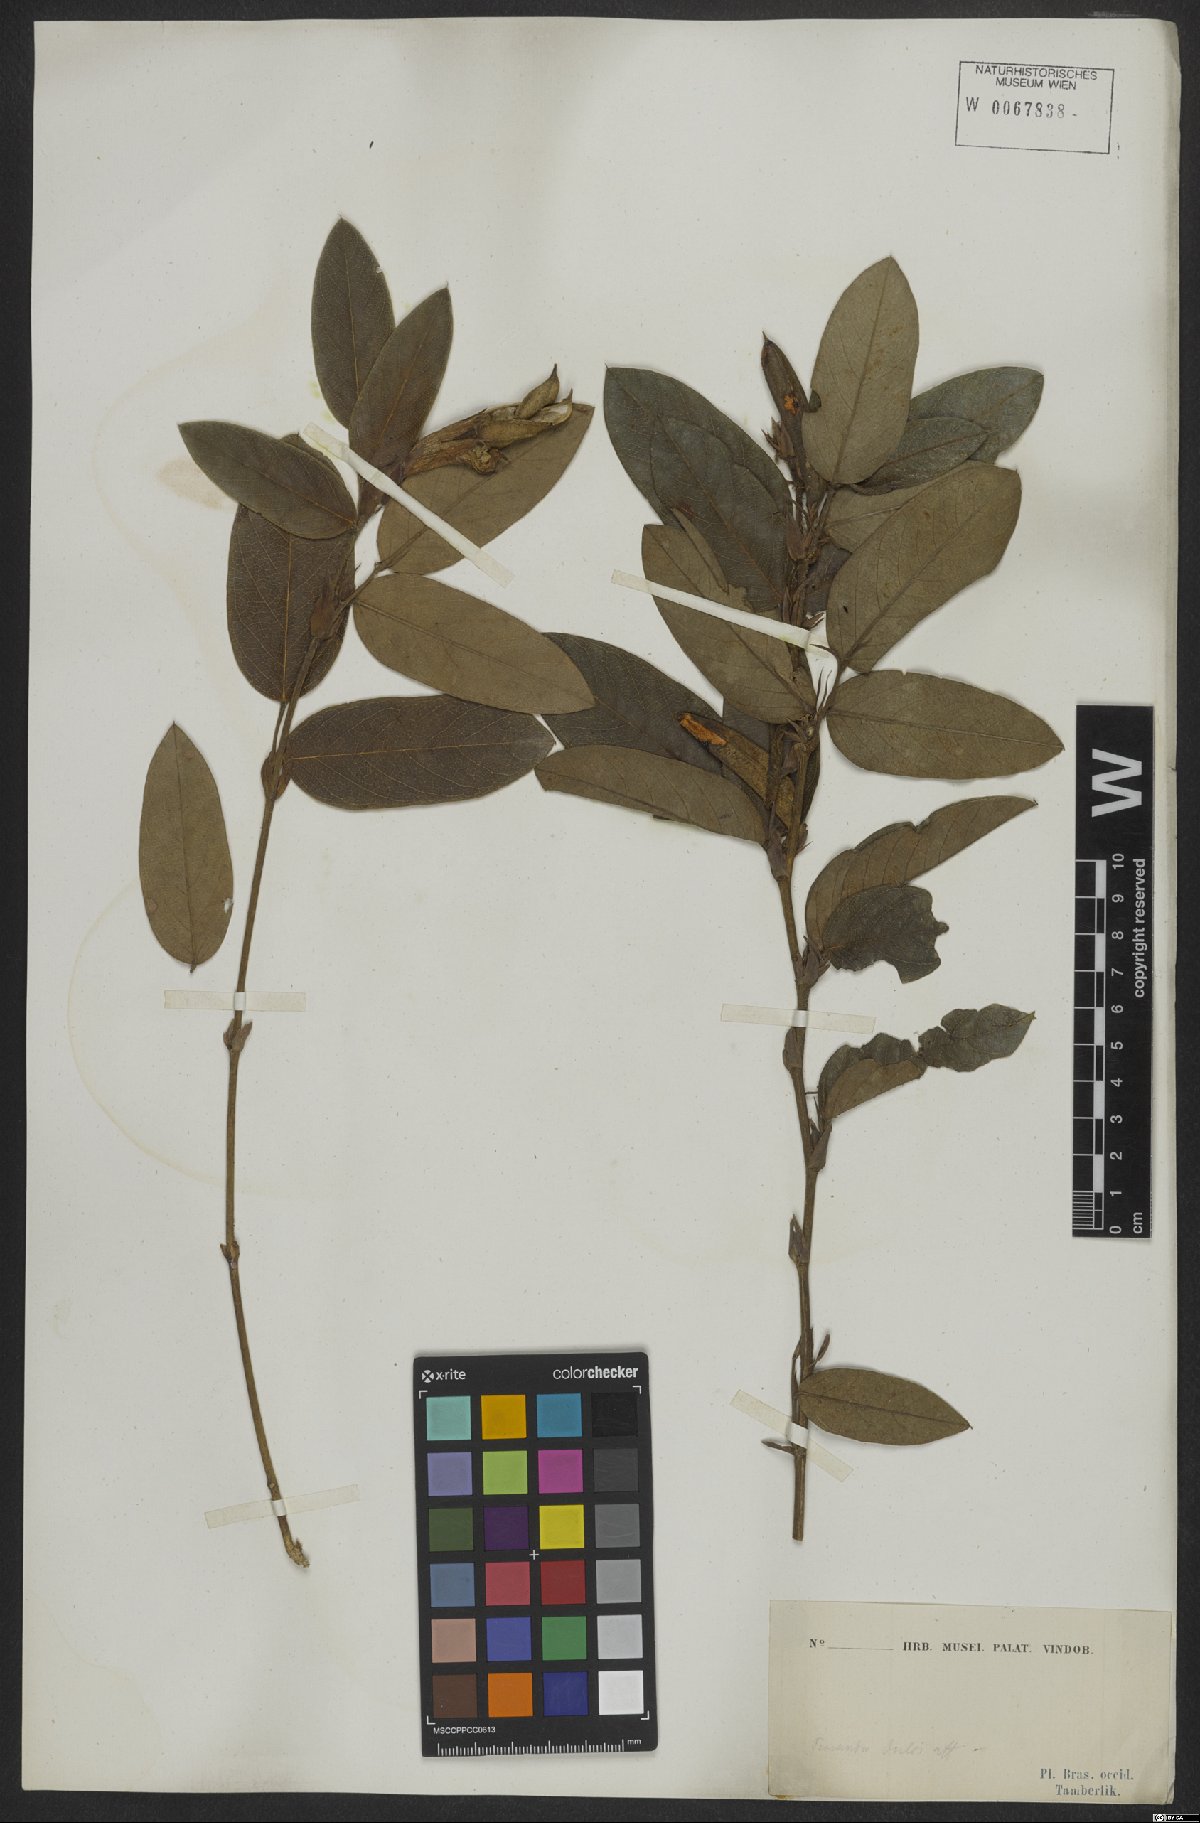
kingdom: Plantae
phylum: Tracheophyta
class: Magnoliopsida
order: Fabales
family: Fabaceae
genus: Periandra
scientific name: Periandra
